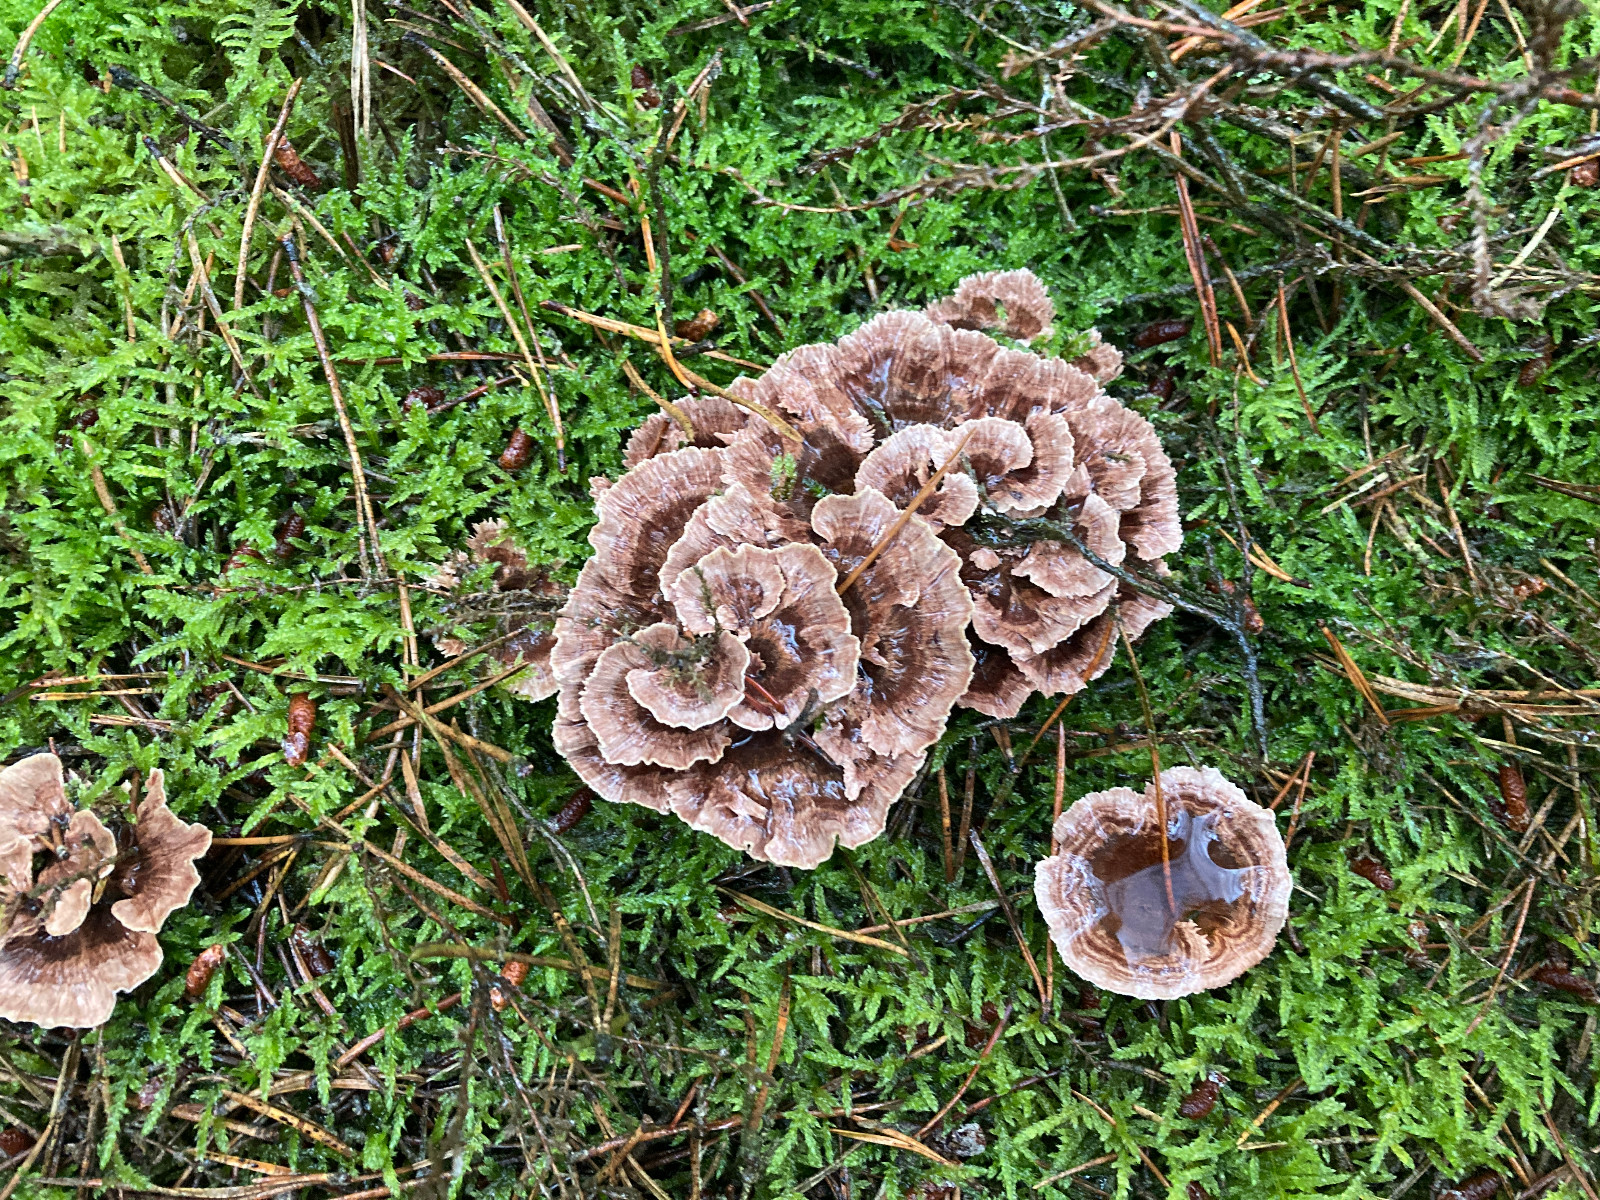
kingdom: Fungi
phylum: Basidiomycota
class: Agaricomycetes
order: Thelephorales
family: Bankeraceae
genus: Hydnellum
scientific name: Hydnellum concrescens
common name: Zoned tooth
